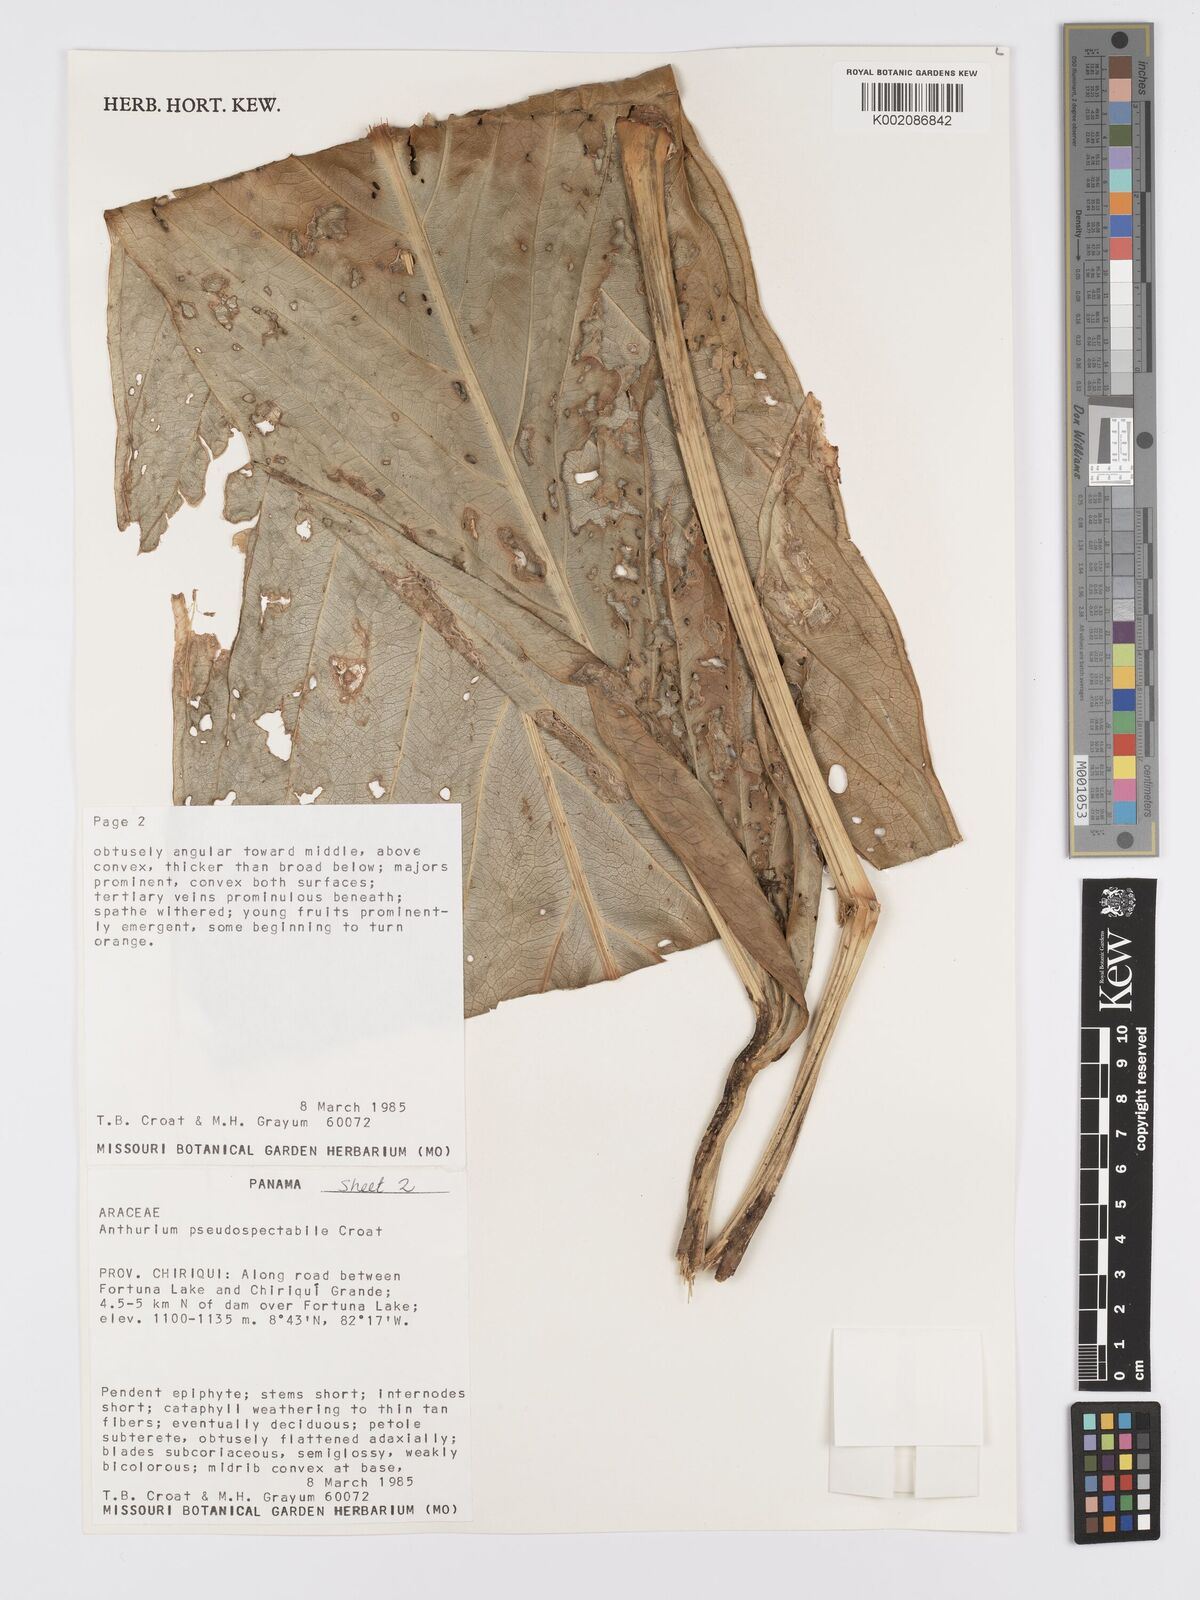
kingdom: Plantae
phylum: Tracheophyta
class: Liliopsida
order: Alismatales
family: Araceae
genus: Anthurium
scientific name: Anthurium pseudospectabile
